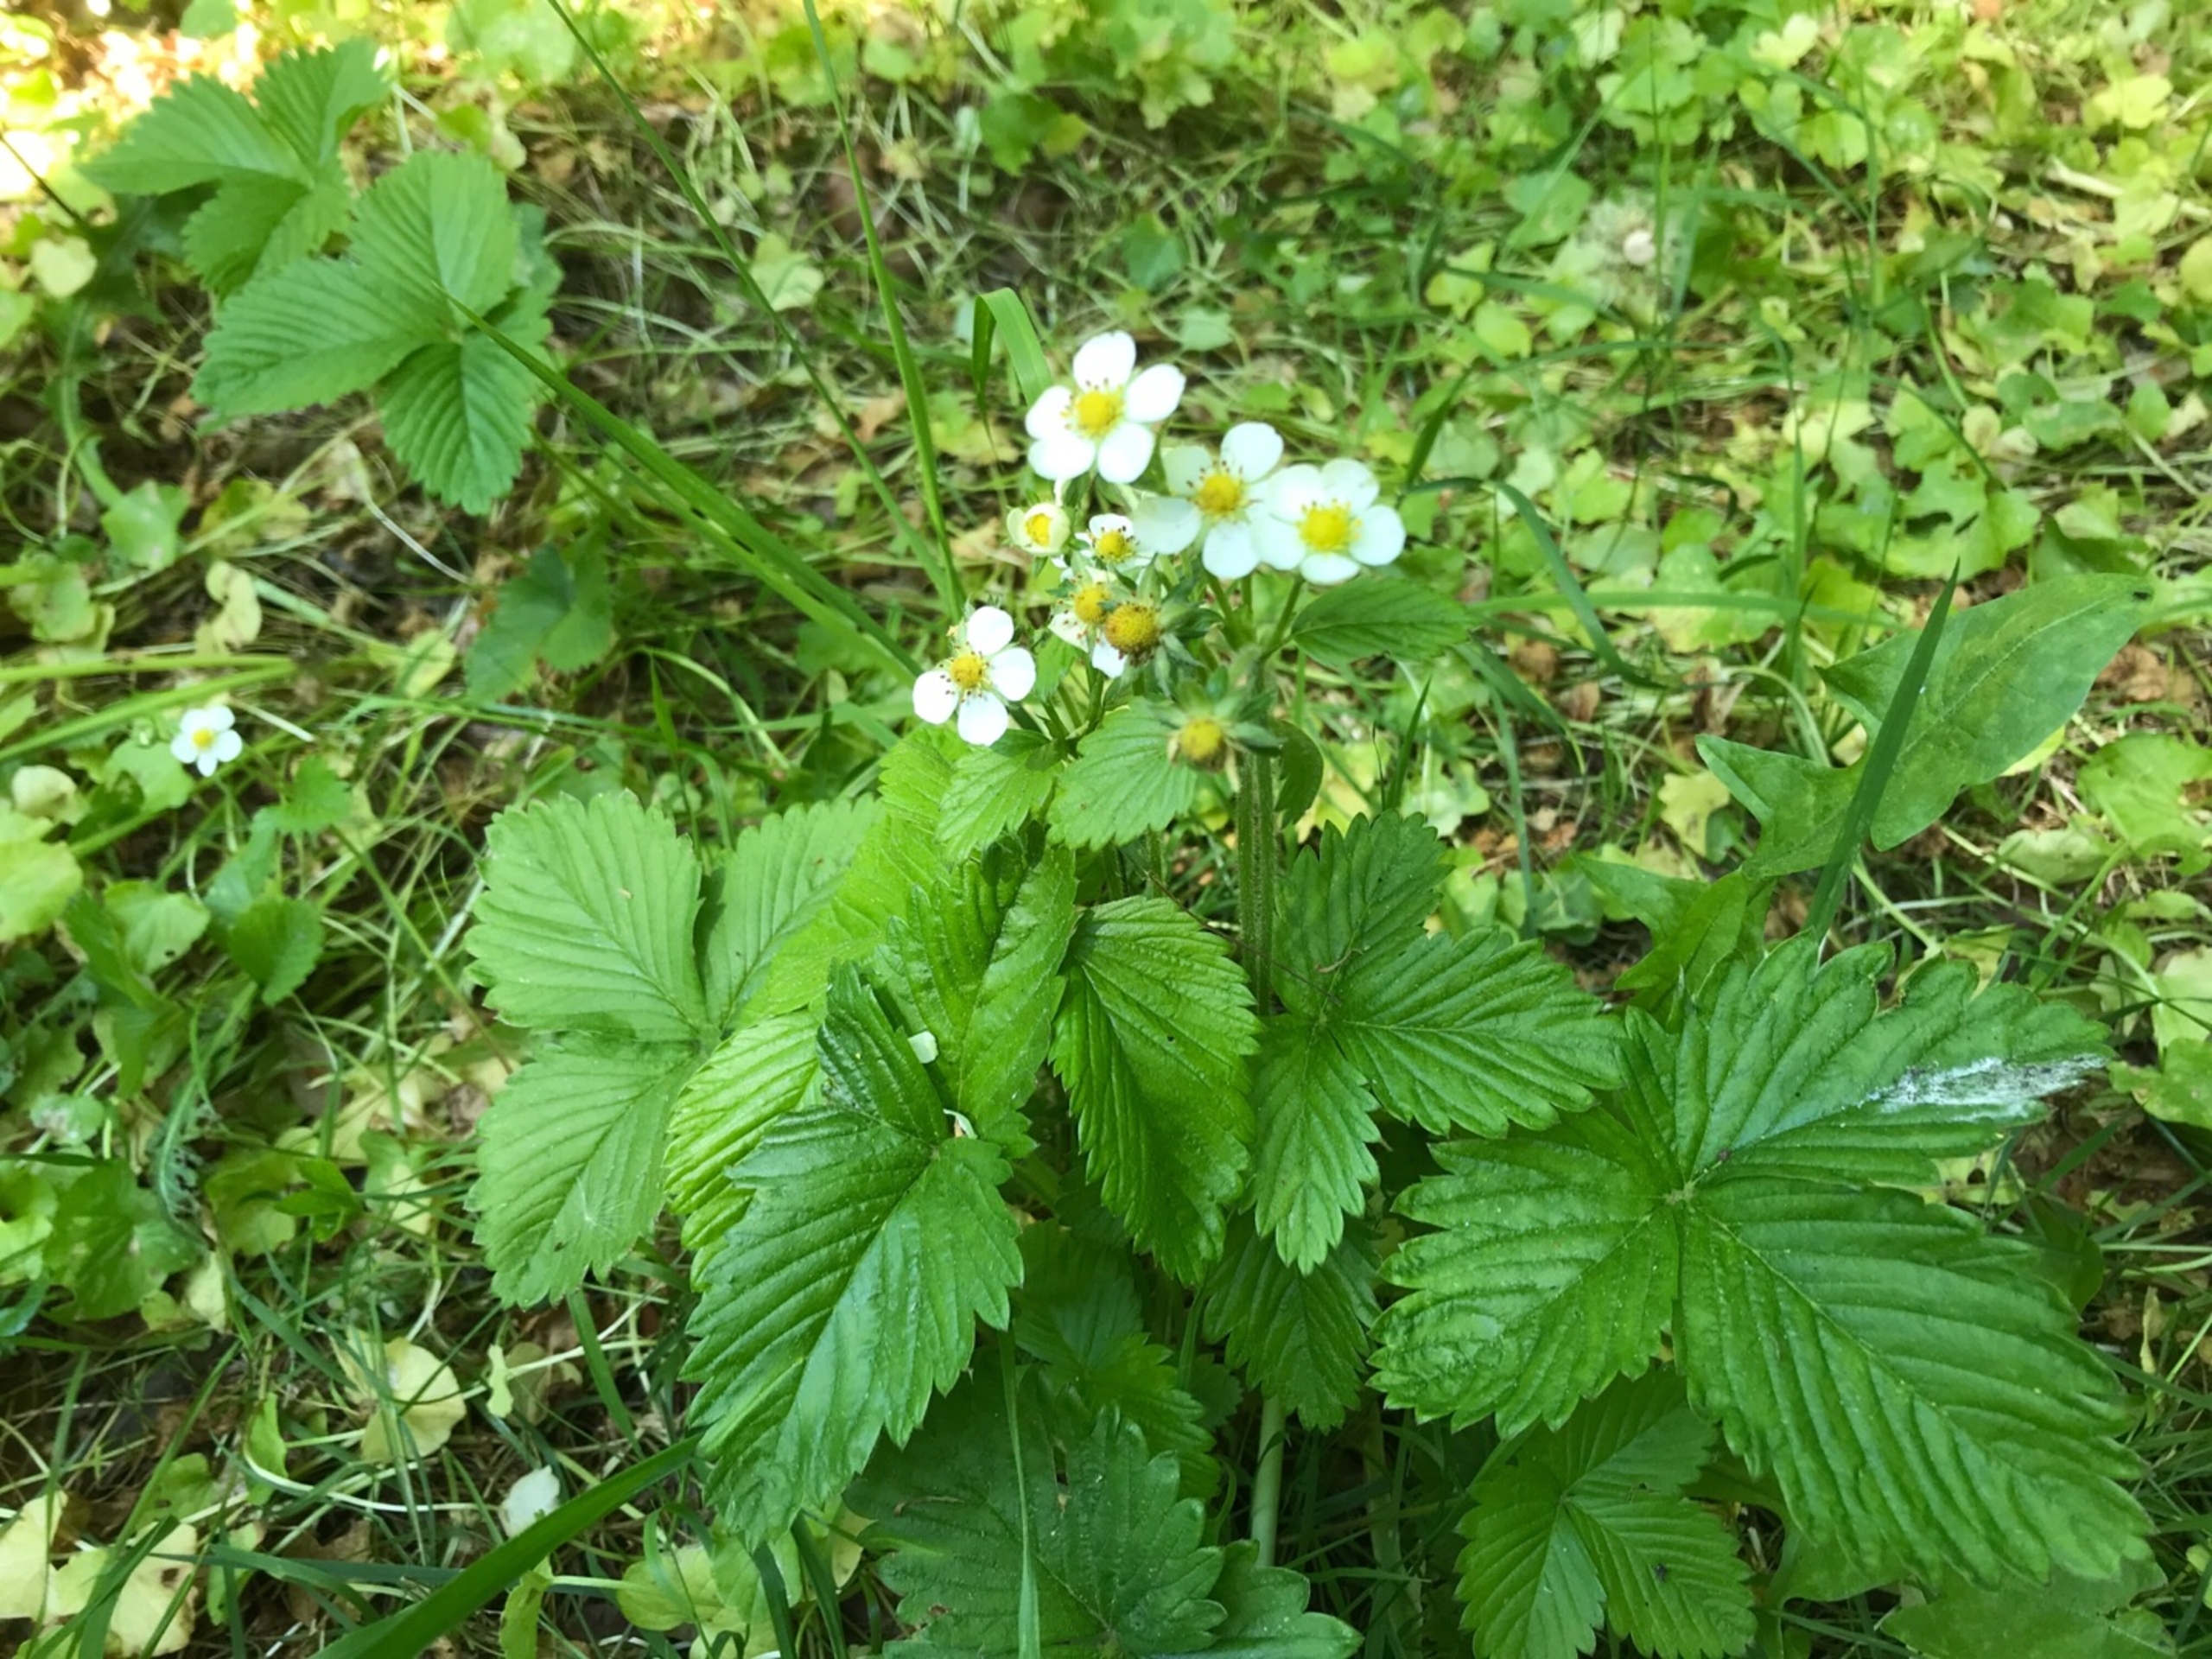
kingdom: Plantae
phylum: Tracheophyta
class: Magnoliopsida
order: Rosales
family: Rosaceae
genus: Fragaria
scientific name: Fragaria vesca
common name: Skov-jordbær
